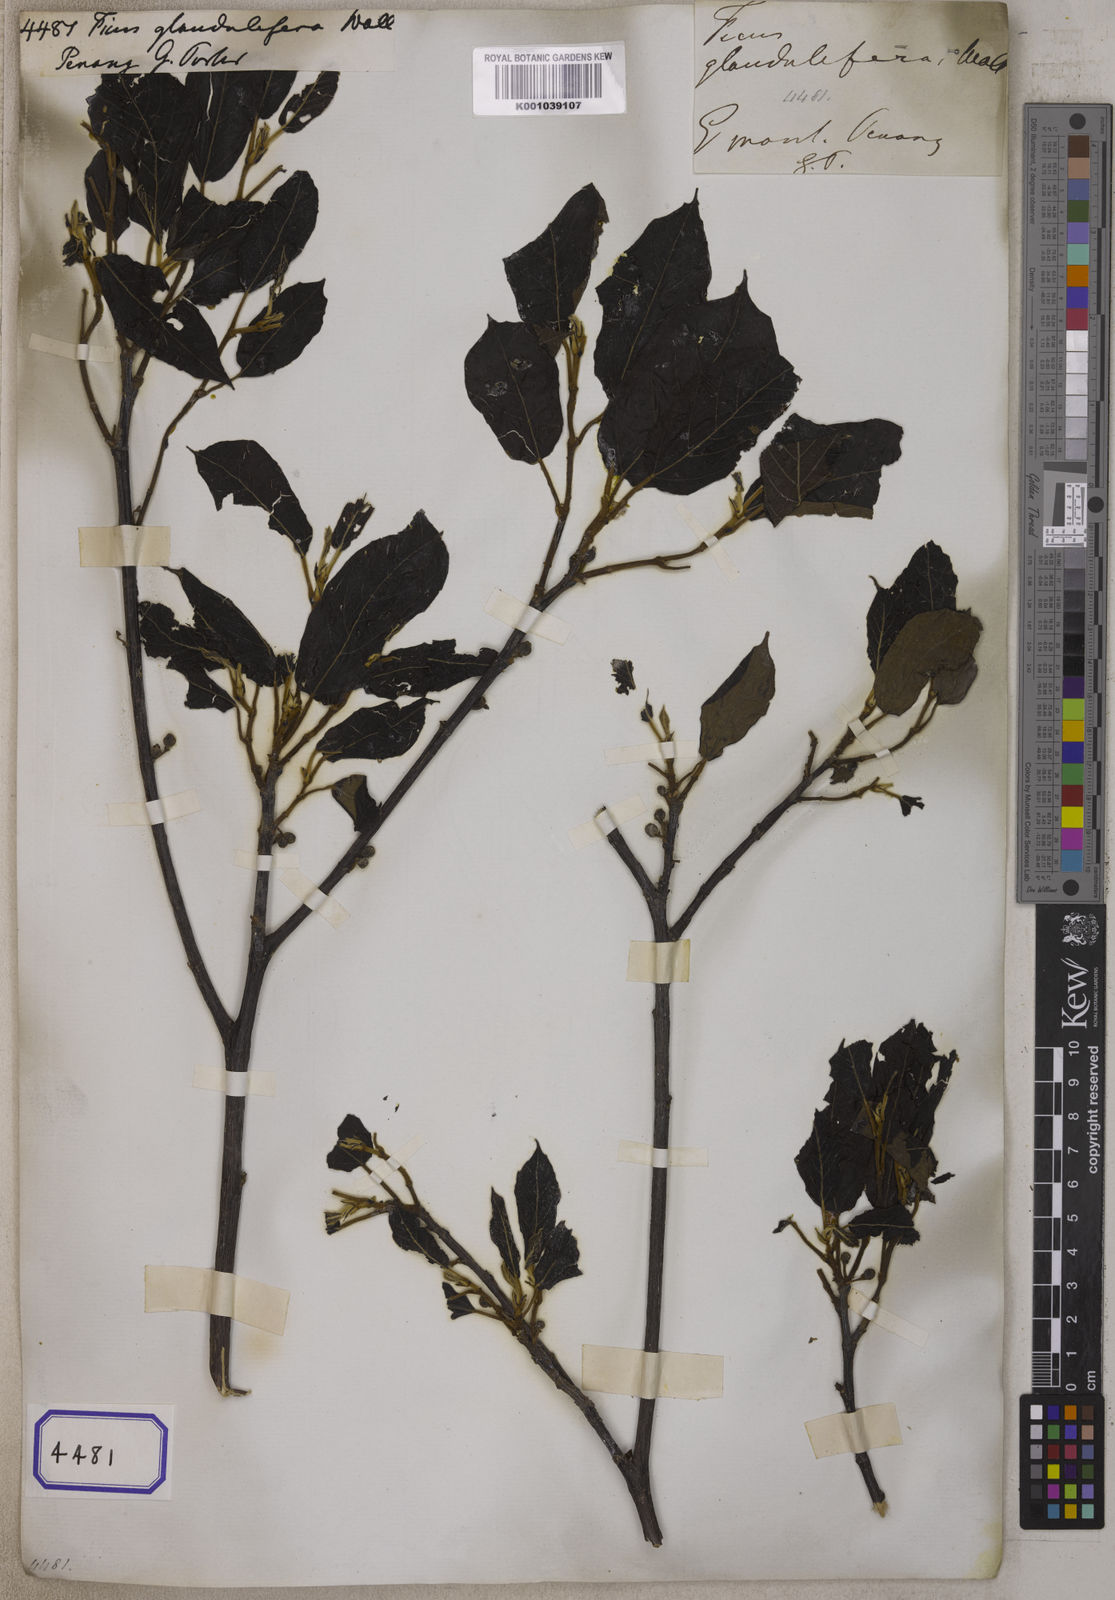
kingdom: Plantae
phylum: Tracheophyta
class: Magnoliopsida
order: Rosales
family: Moraceae
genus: Ficus
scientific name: Ficus
